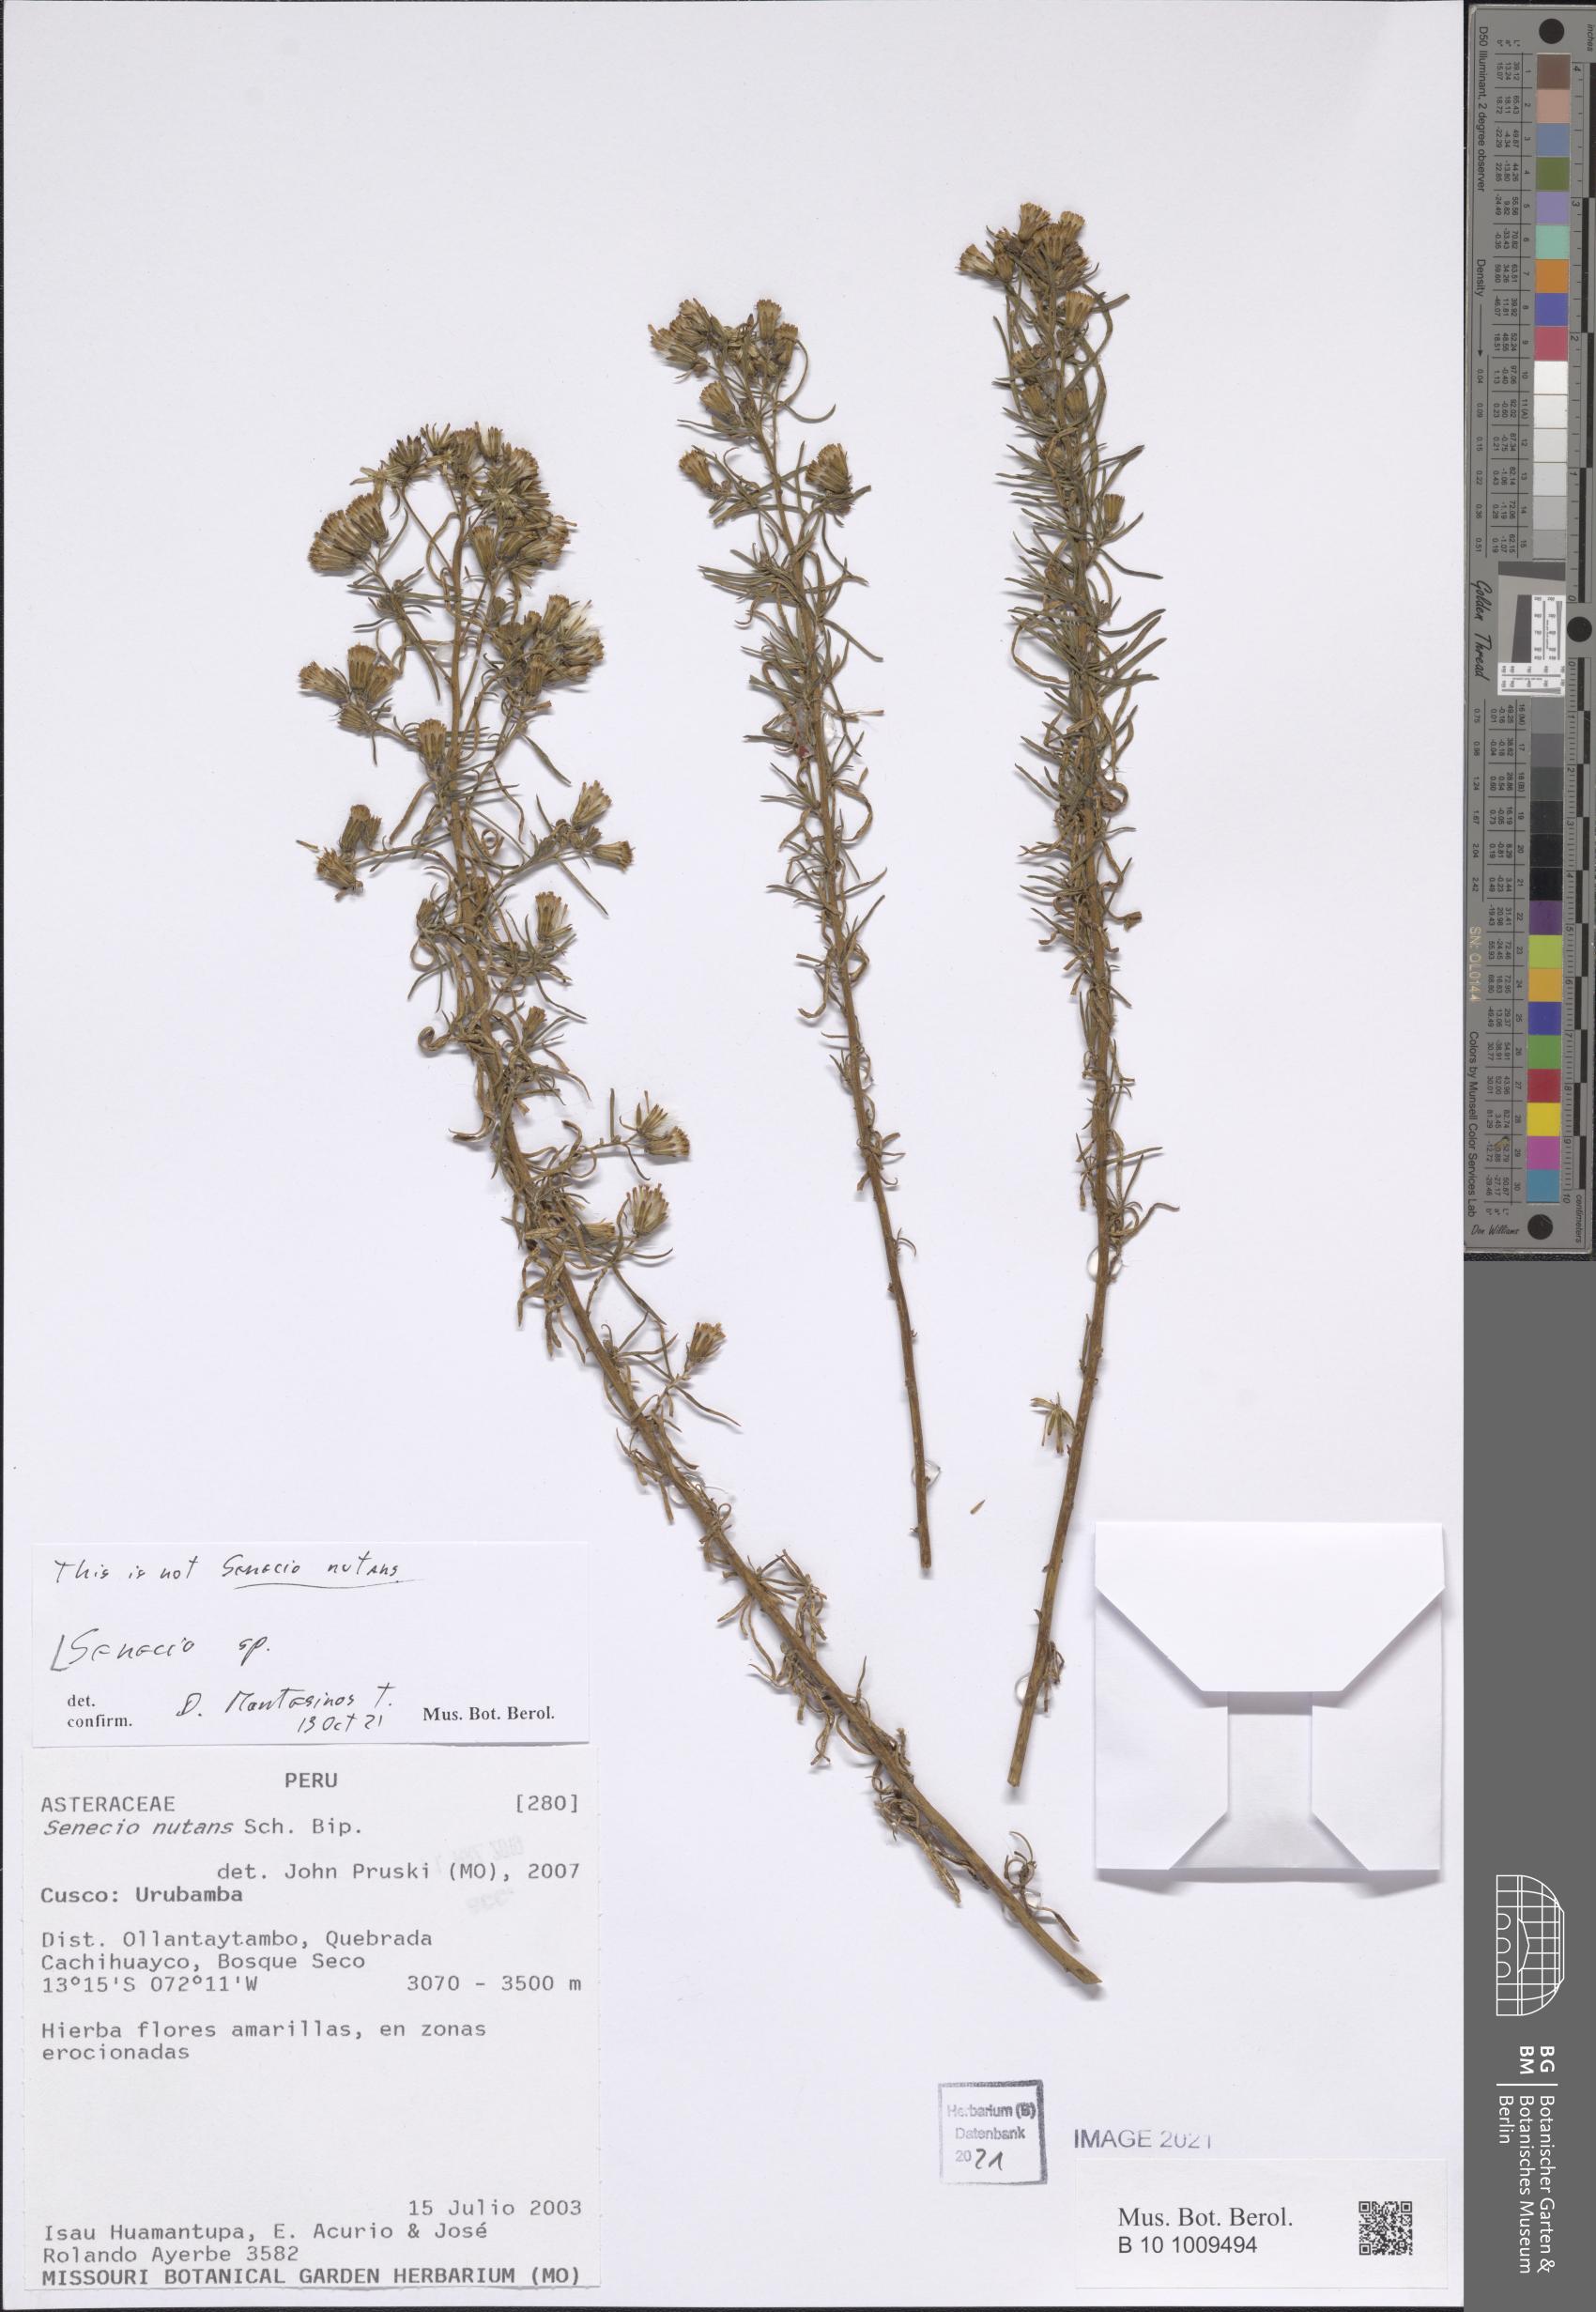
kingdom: Plantae
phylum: Tracheophyta
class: Magnoliopsida
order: Asterales
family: Asteraceae
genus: Senecio
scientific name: Senecio
